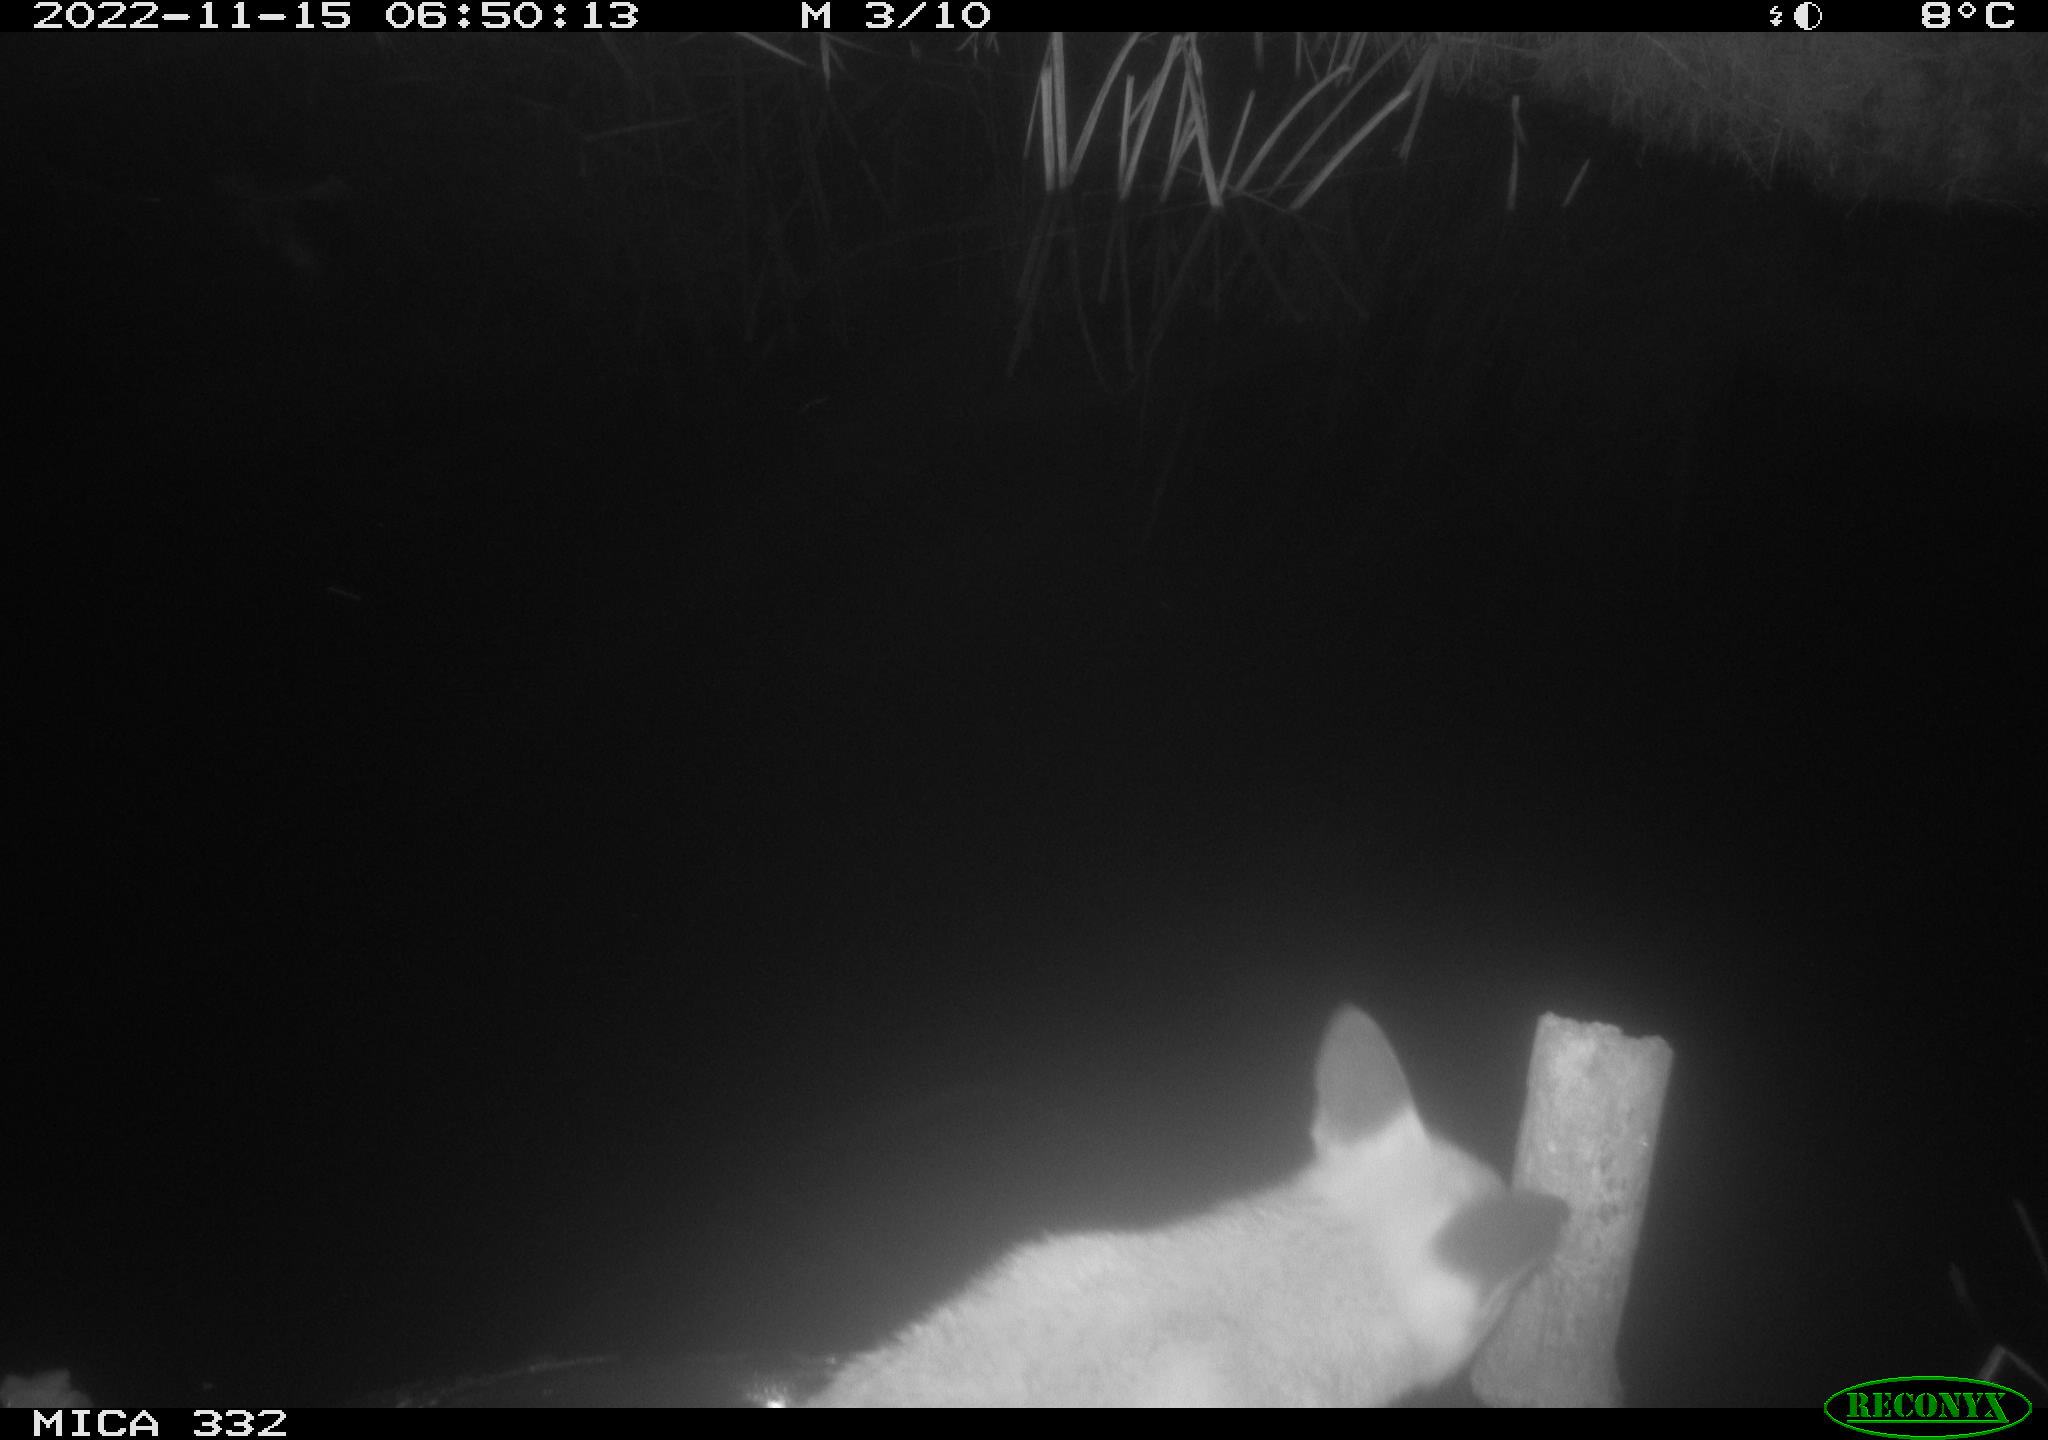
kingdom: Animalia
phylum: Chordata
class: Mammalia
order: Carnivora
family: Canidae
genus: Vulpes
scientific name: Vulpes vulpes
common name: Red fox
